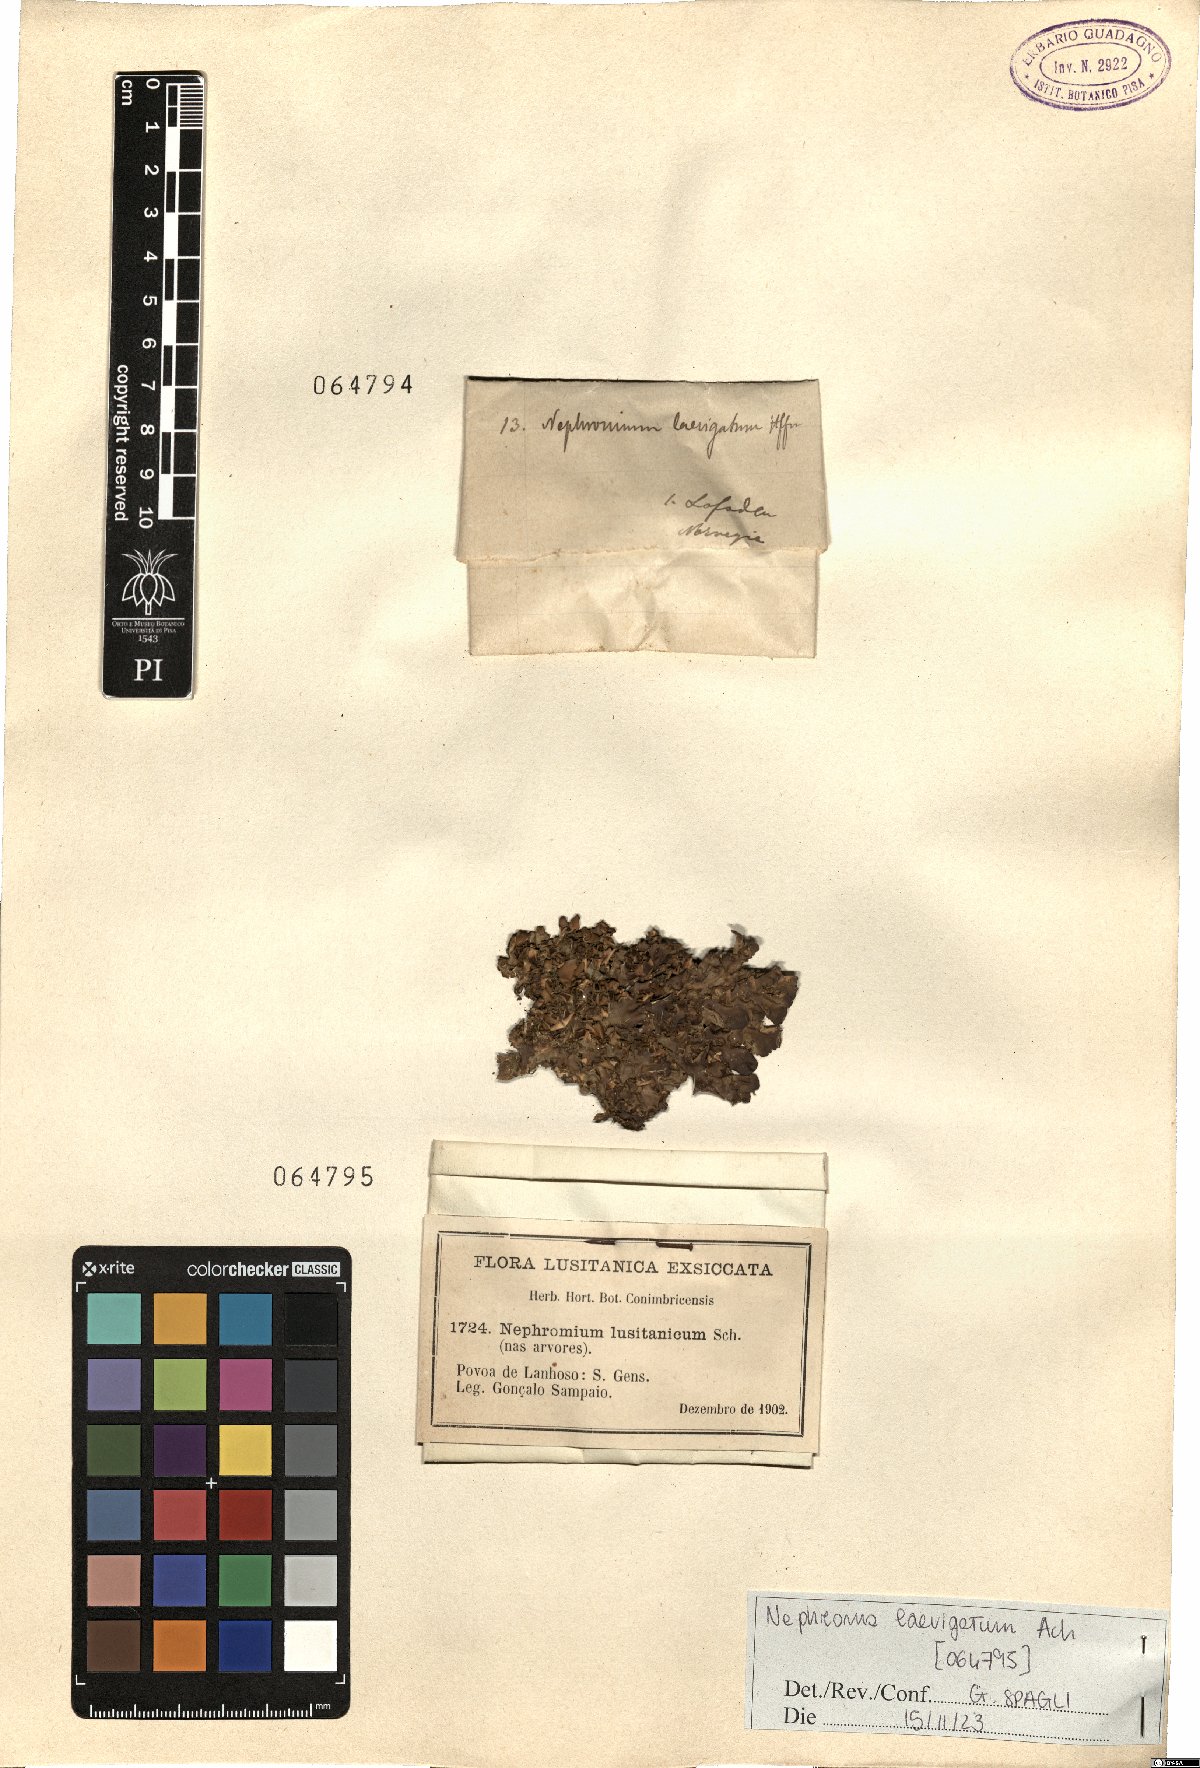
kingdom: Fungi
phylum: Ascomycota
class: Lecanoromycetes
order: Peltigerales
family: Nephromataceae
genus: Nephroma
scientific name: Nephroma laevigatum
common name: Mustard kidney lichen
